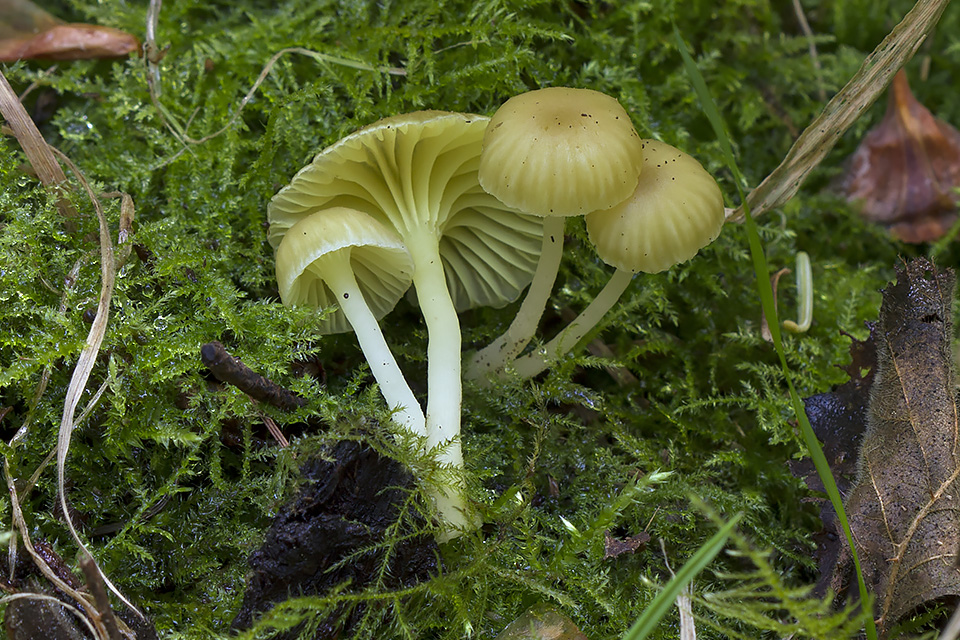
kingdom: Fungi
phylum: Basidiomycota
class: Agaricomycetes
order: Agaricales
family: Hygrophoraceae
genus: Chrysomphalina
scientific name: Chrysomphalina grossula
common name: stød-gyldenblad
